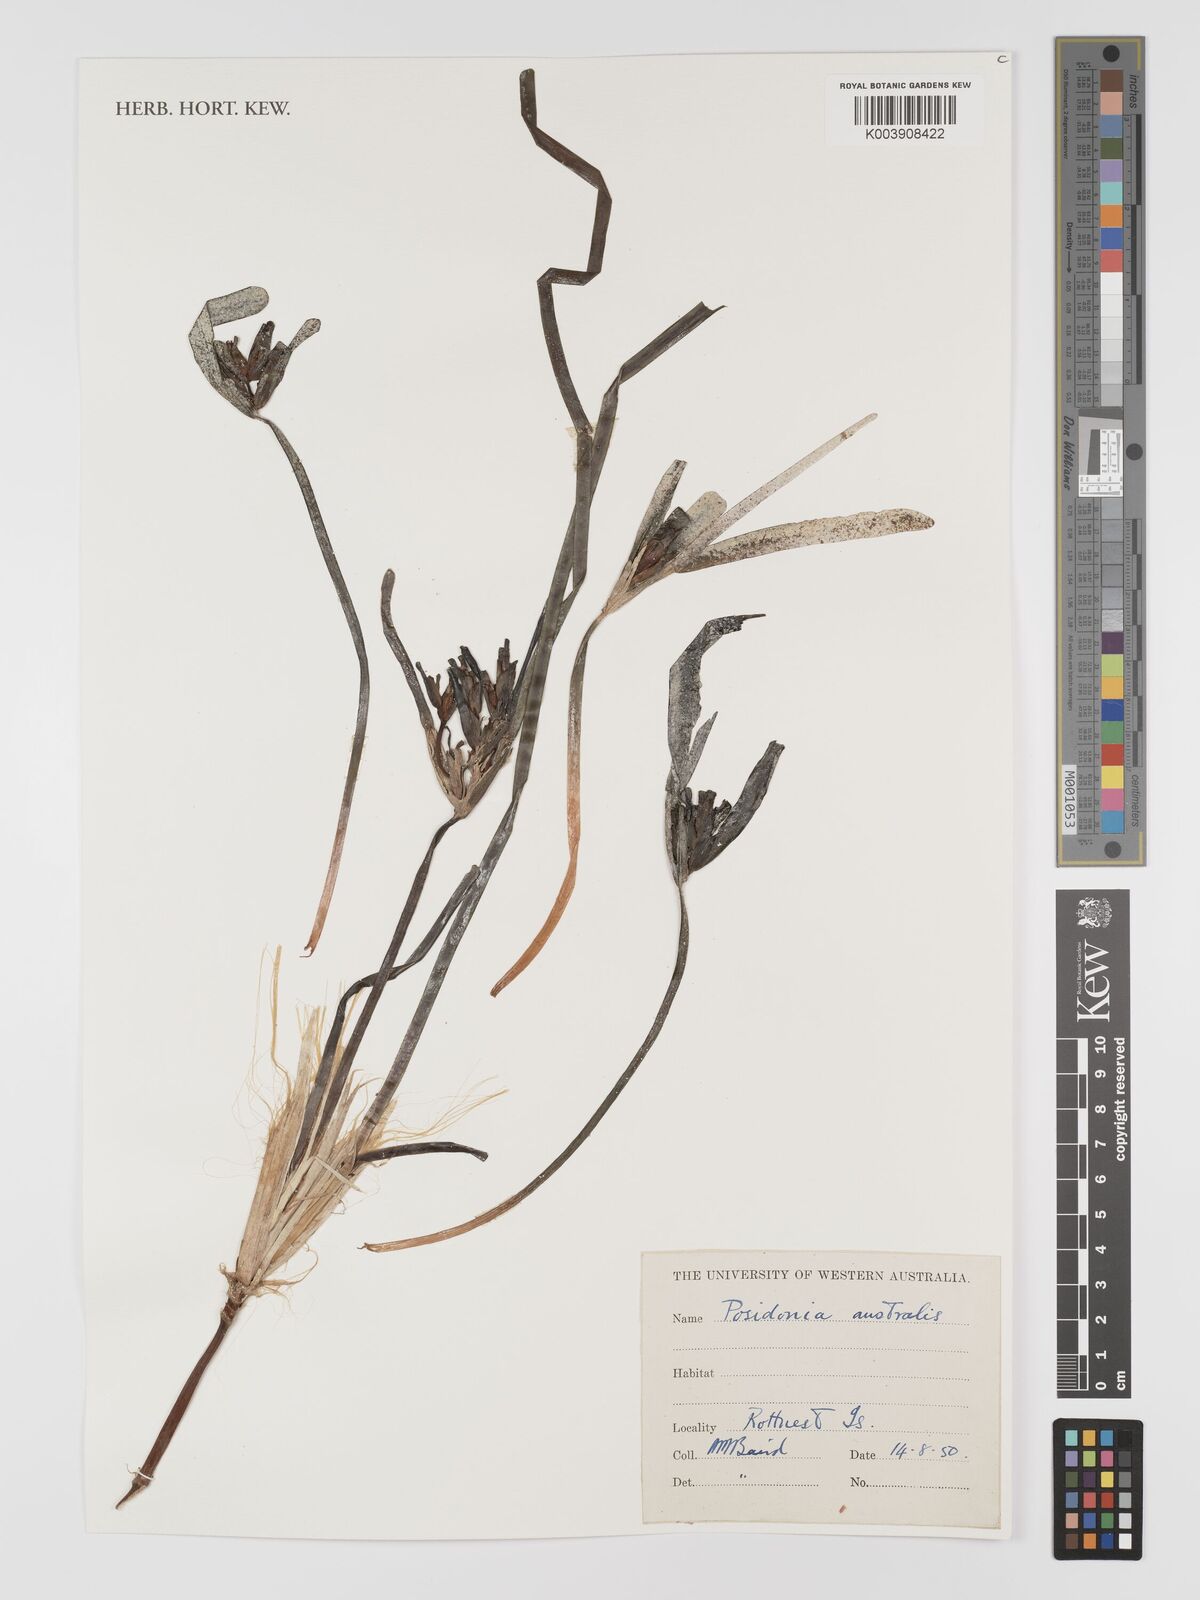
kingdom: Plantae
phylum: Tracheophyta
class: Liliopsida
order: Alismatales
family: Posidoniaceae
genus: Posidonia
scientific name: Posidonia australis
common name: Species code: pa
